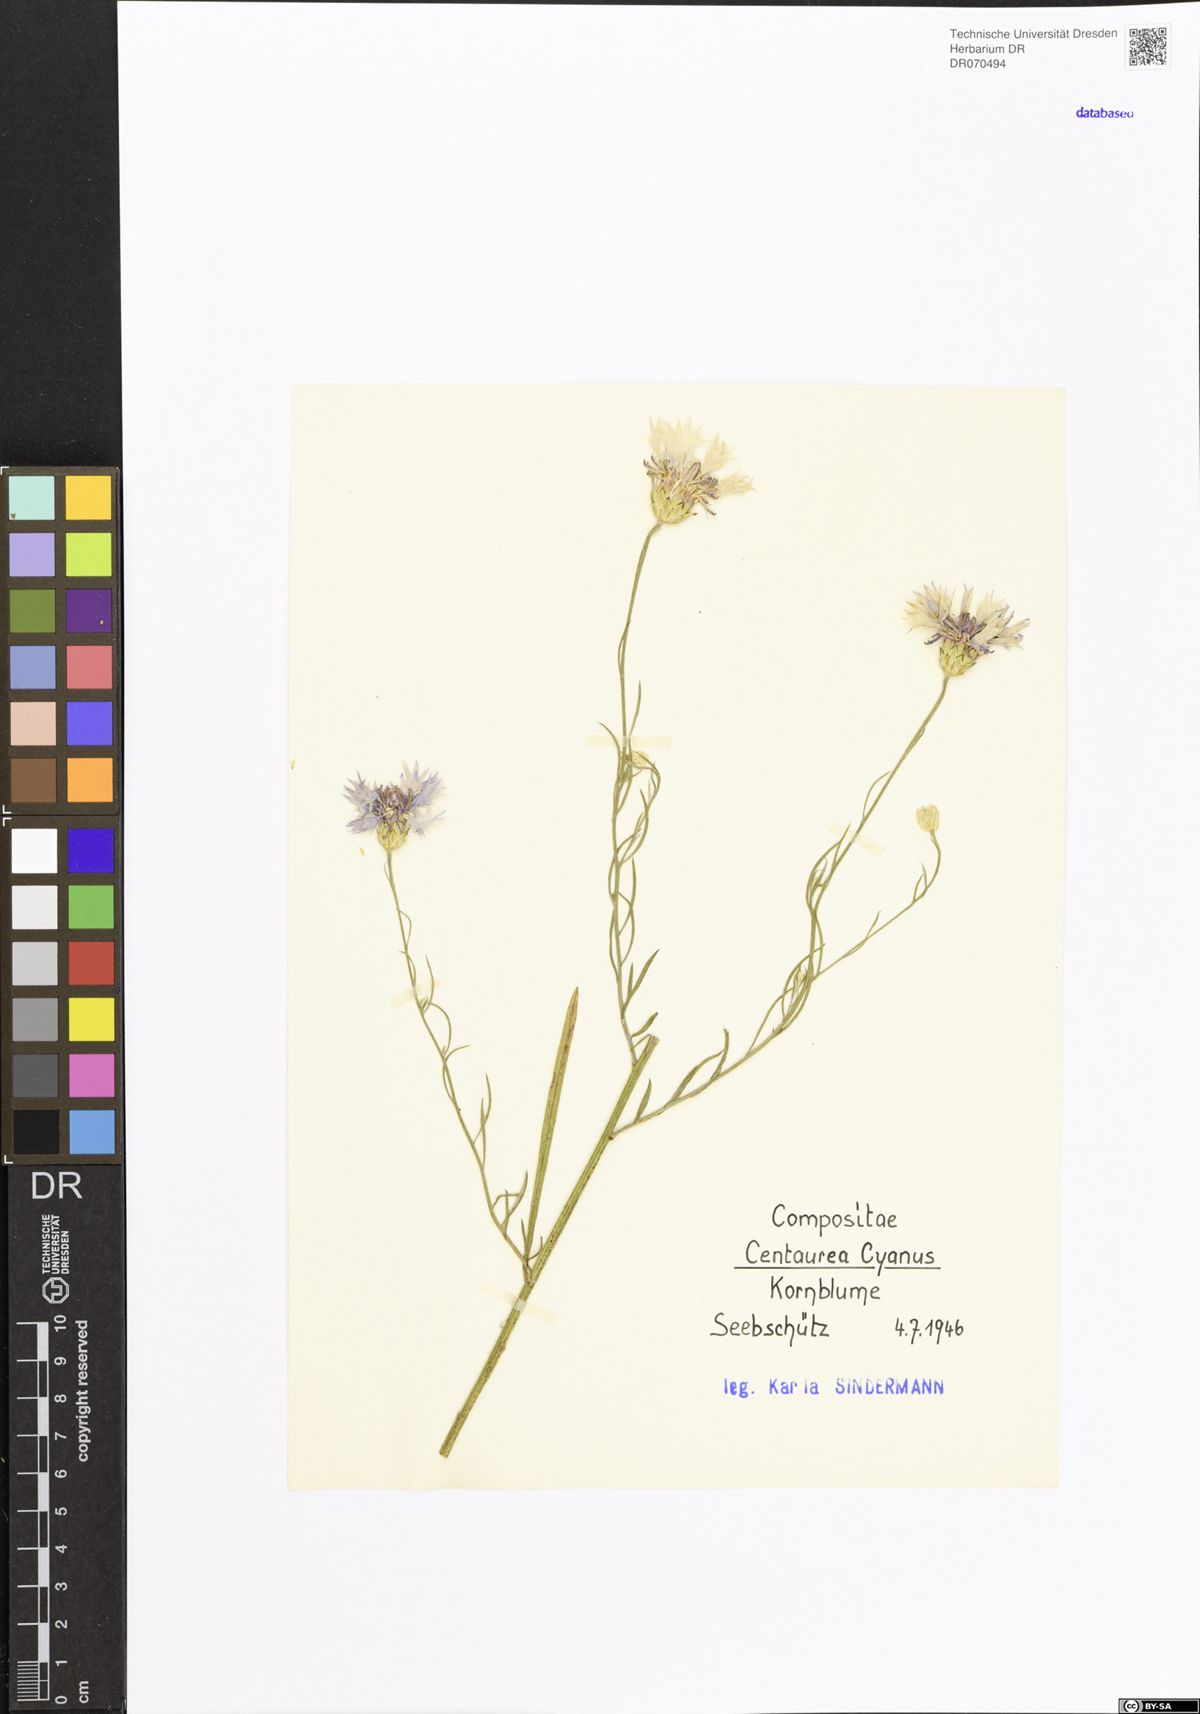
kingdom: Plantae
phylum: Tracheophyta
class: Magnoliopsida
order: Asterales
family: Asteraceae
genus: Centaurea
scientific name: Centaurea cyanus
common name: Cornflower
